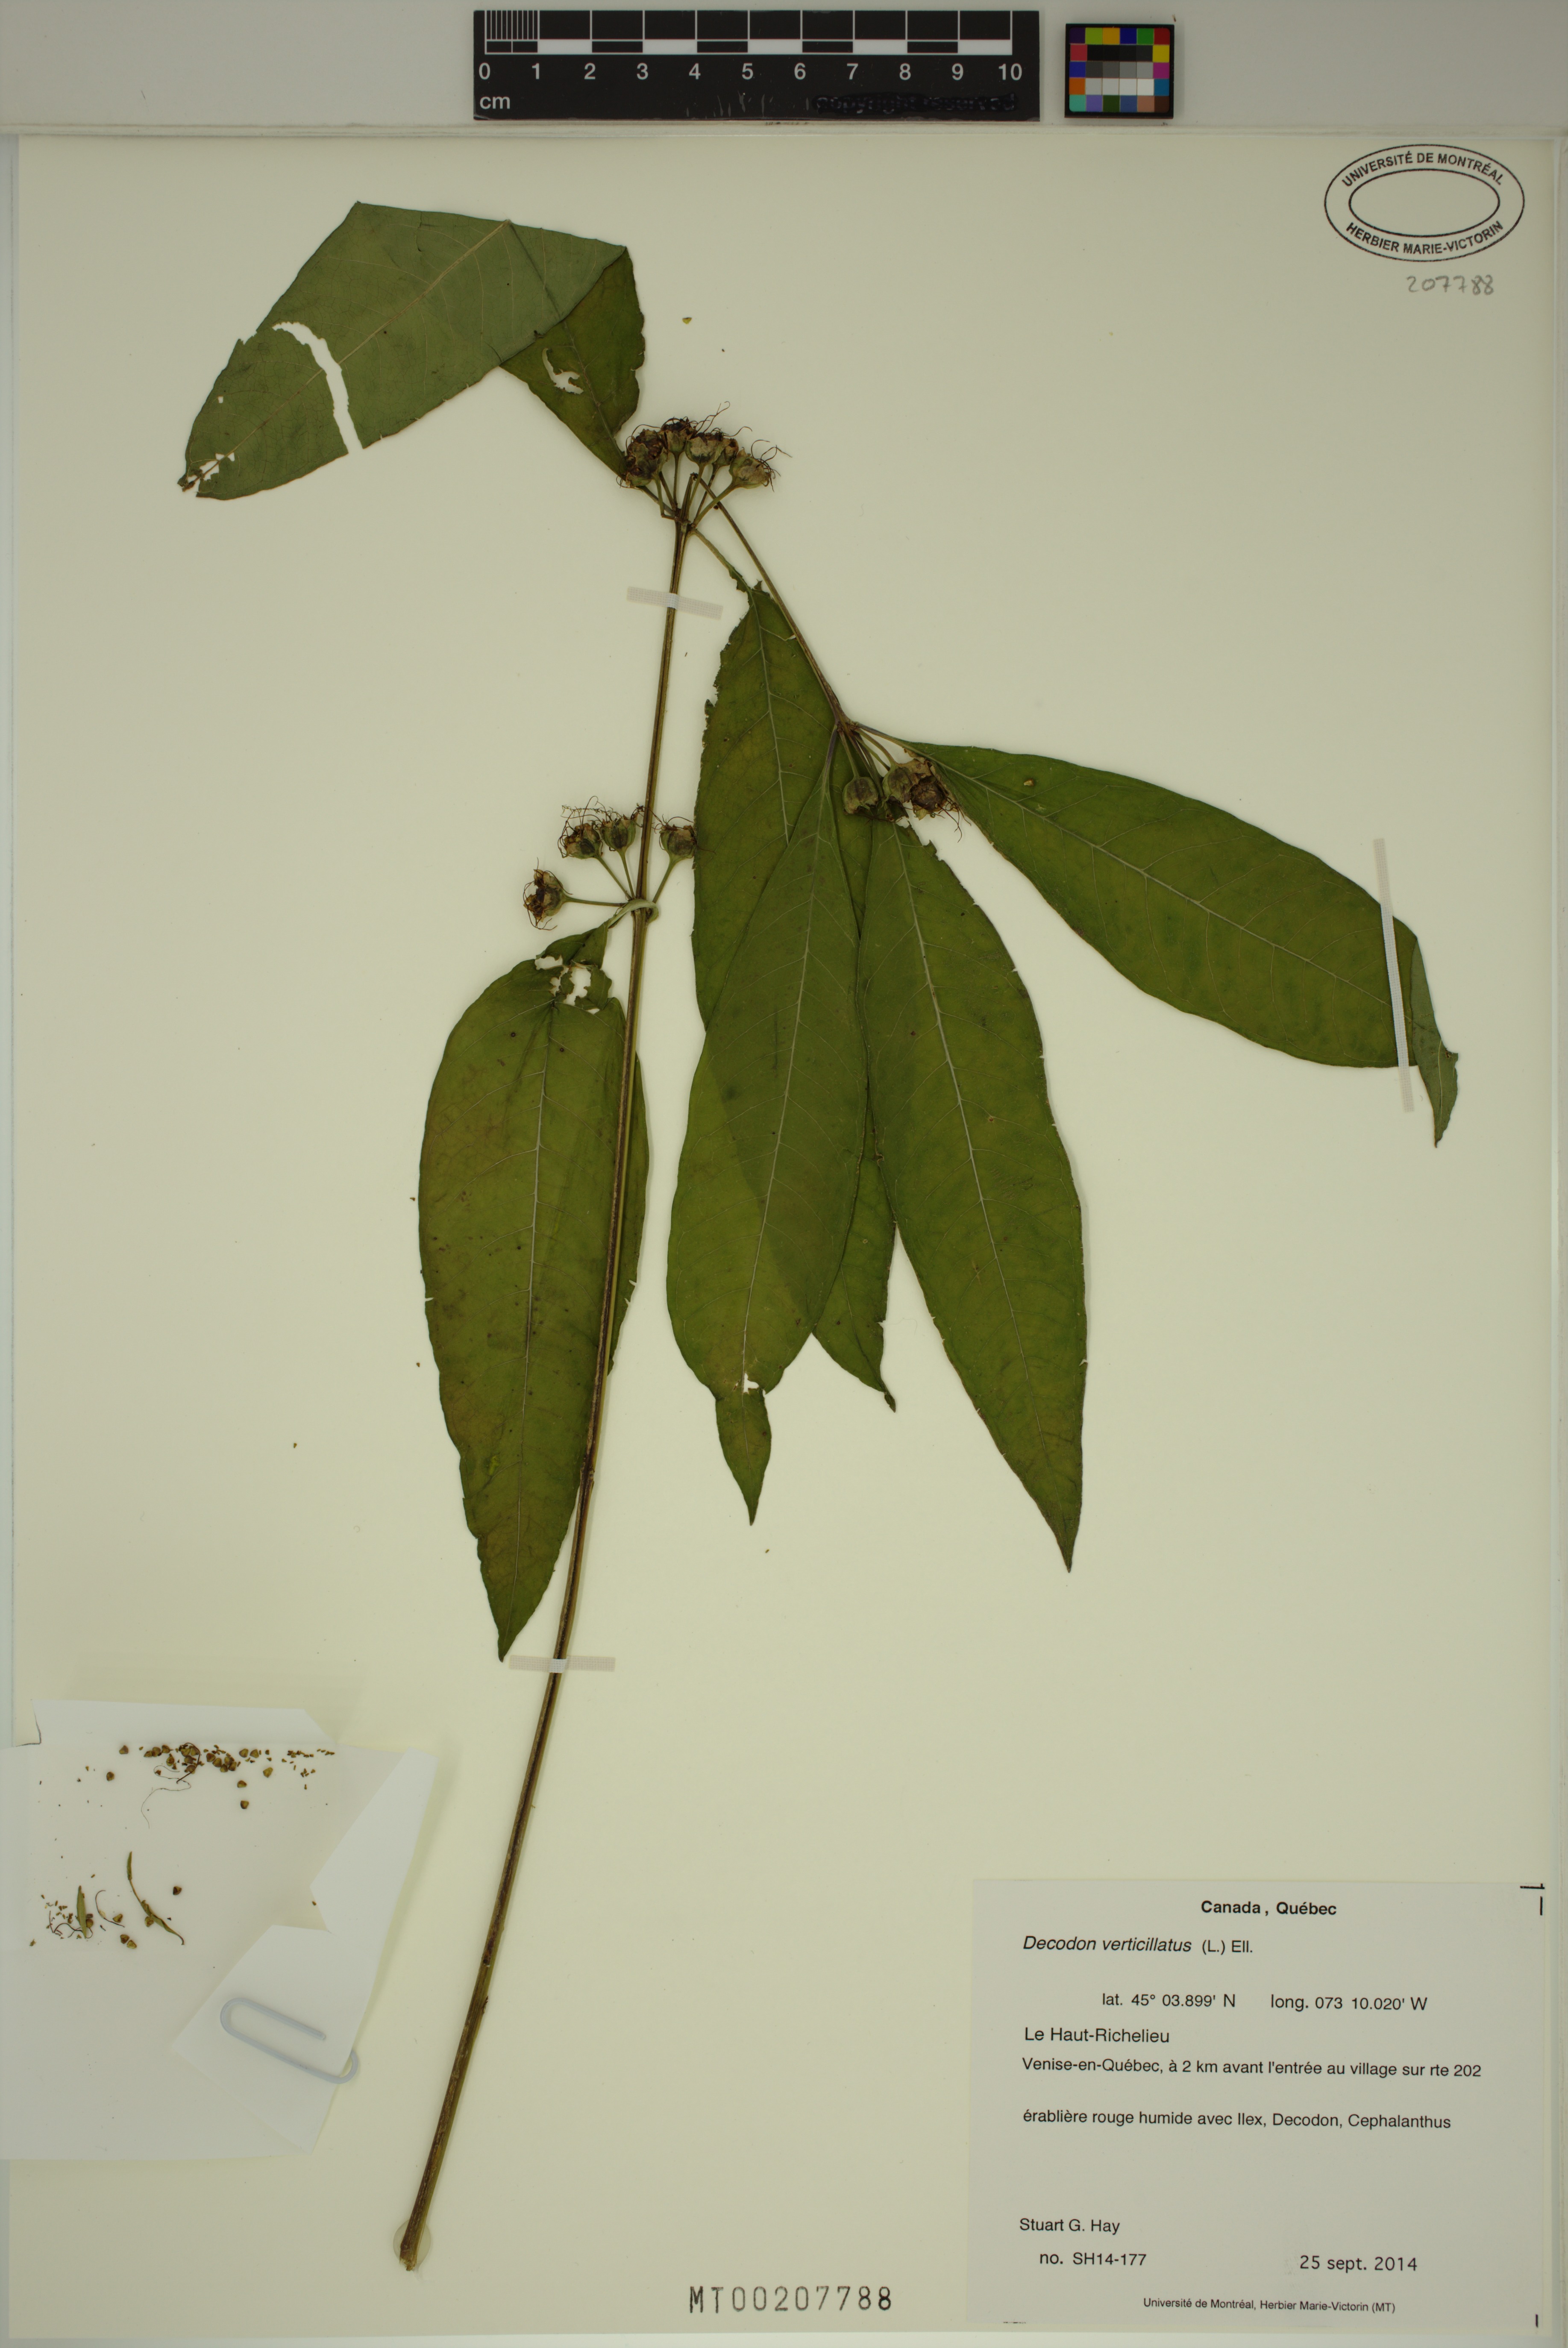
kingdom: Plantae
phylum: Tracheophyta
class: Magnoliopsida
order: Myrtales
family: Lythraceae
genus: Decodon
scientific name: Decodon verticillatus
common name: Hairy swamp loosestrife
